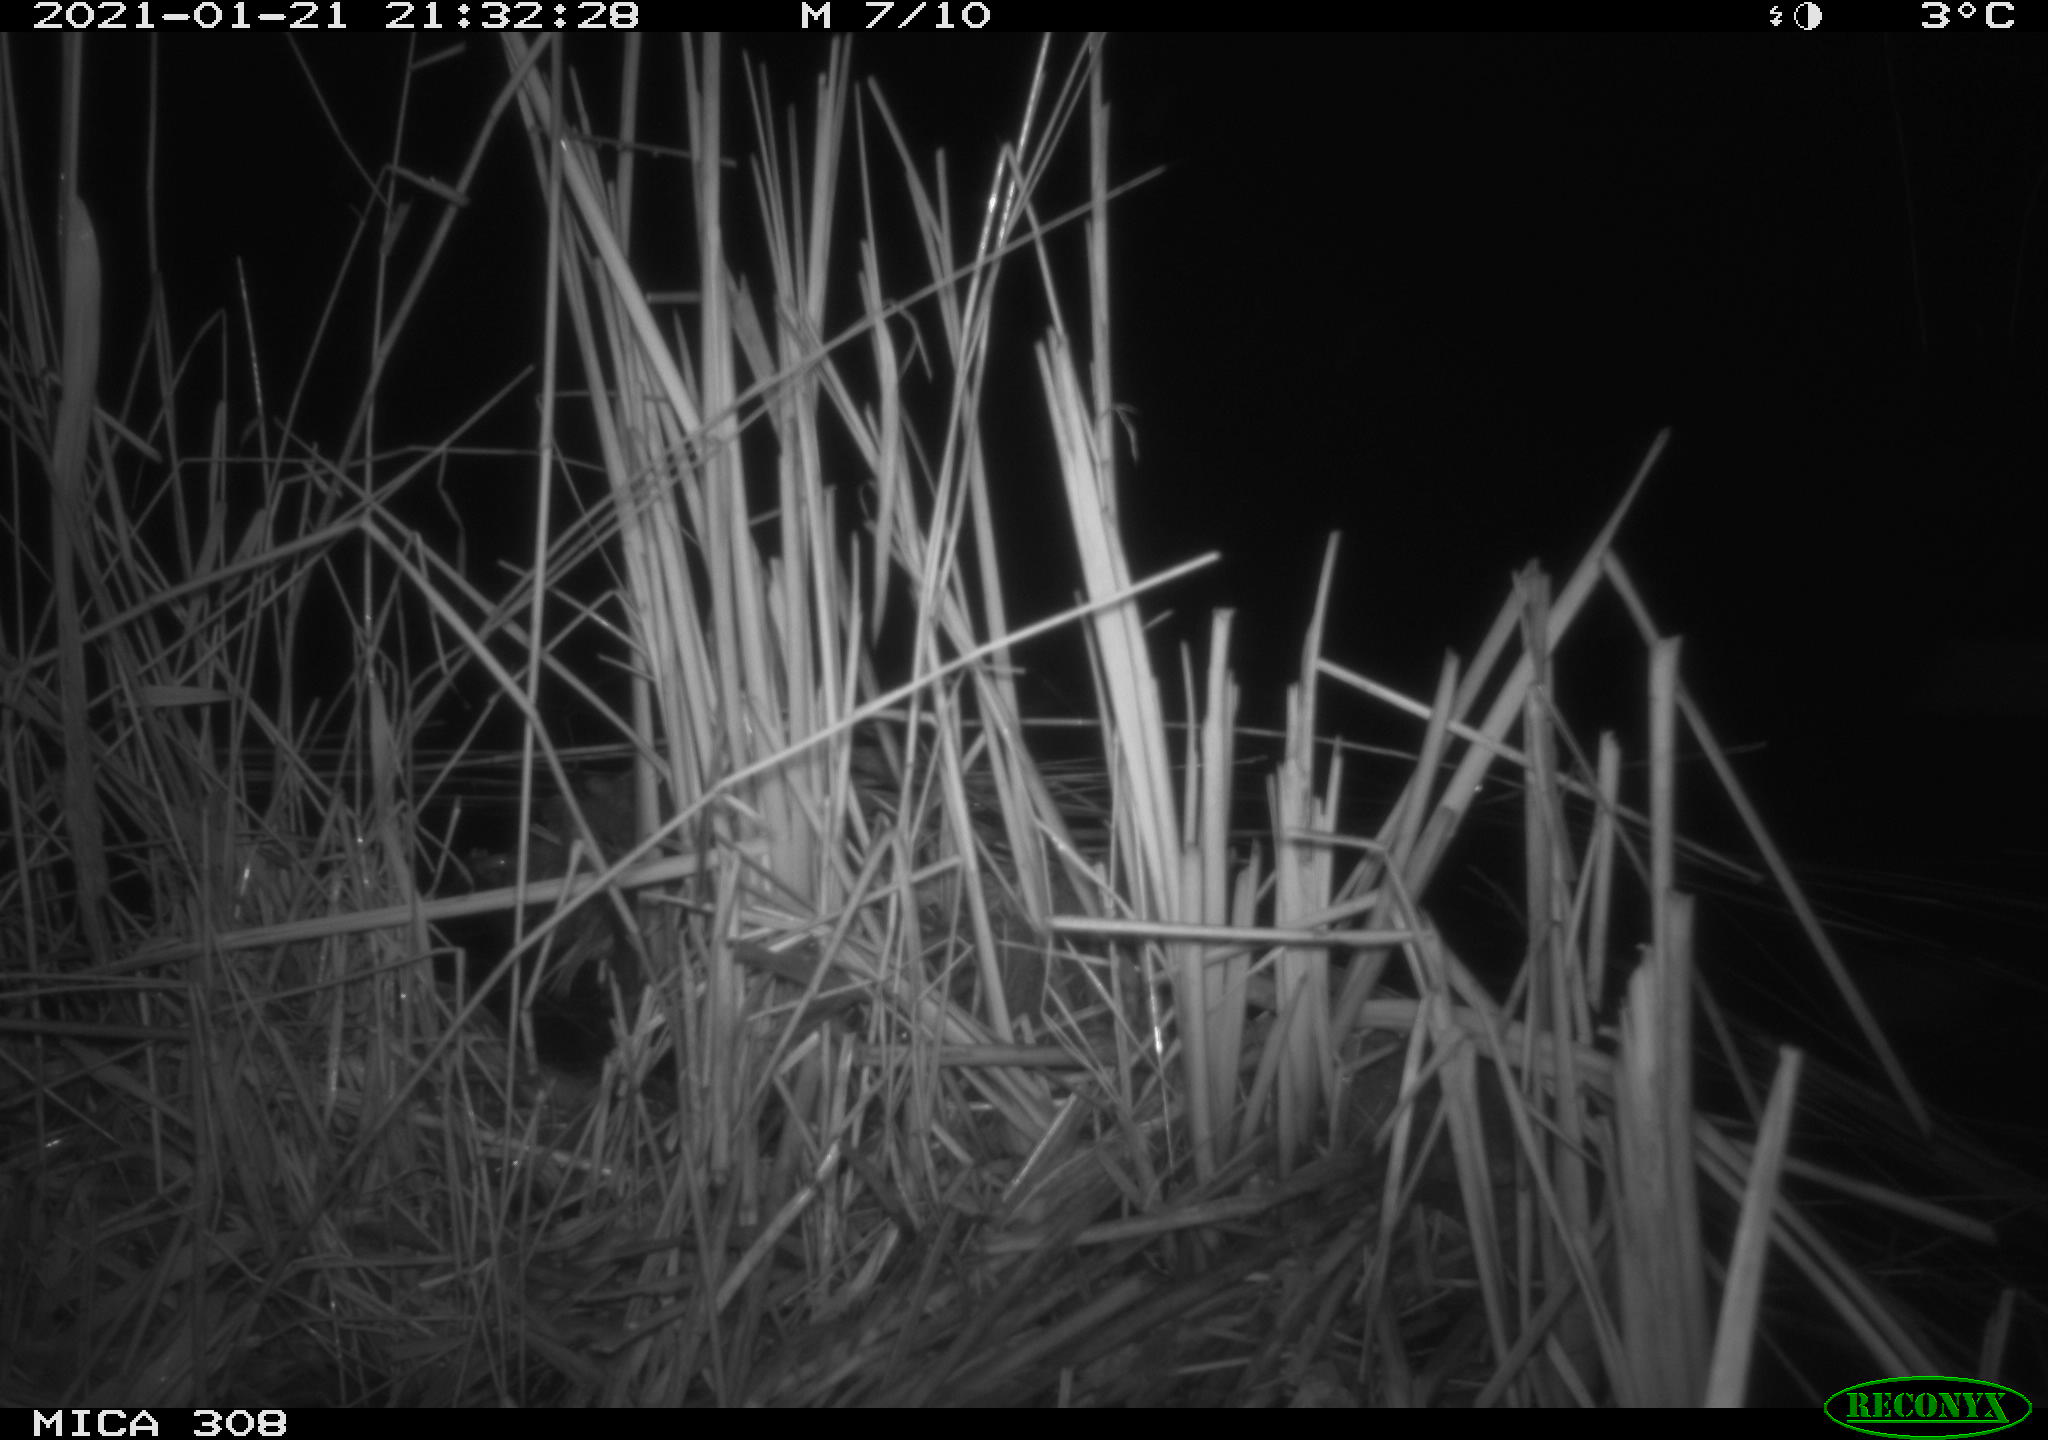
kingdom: Animalia
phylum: Chordata
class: Aves
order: Anseriformes
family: Anatidae
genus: Anas
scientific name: Anas platyrhynchos
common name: Mallard
